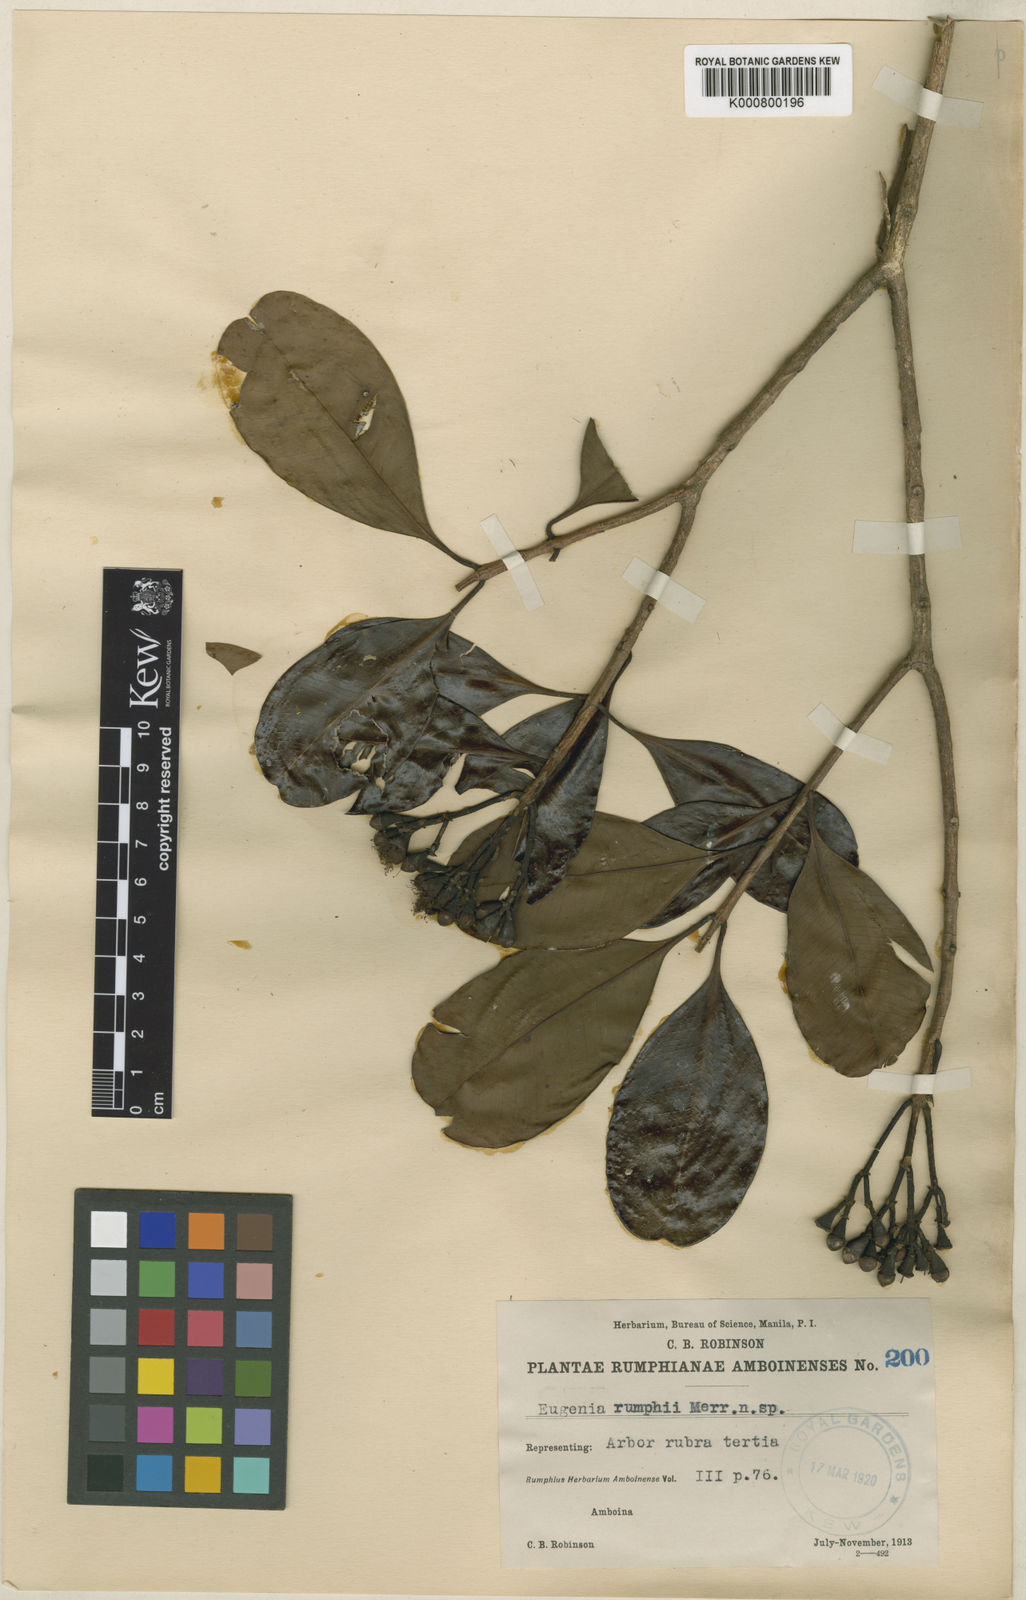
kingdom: Plantae
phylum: Tracheophyta
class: Magnoliopsida
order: Myrtales
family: Myrtaceae
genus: Syzygium
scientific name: Syzygium rumphii
